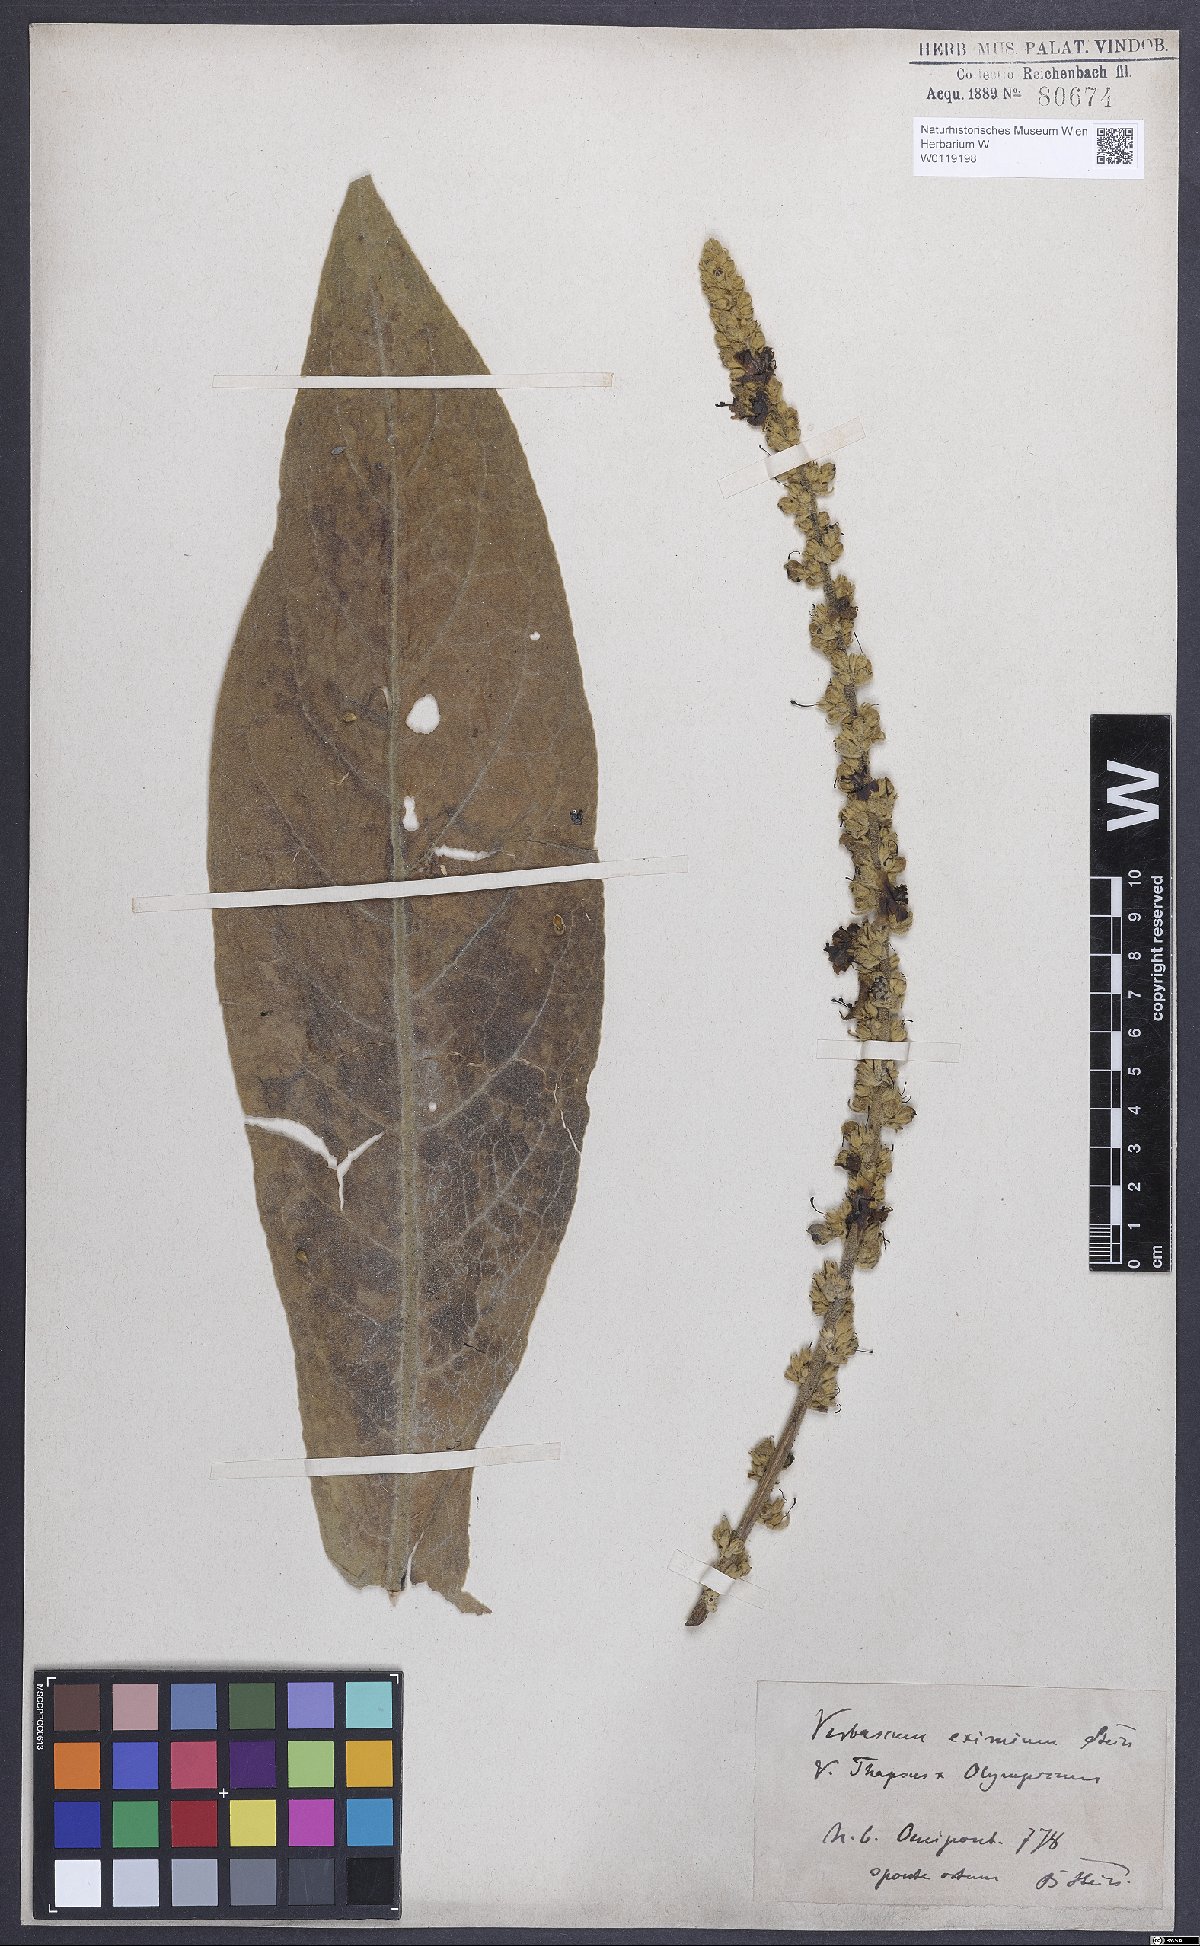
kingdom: Plantae
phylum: Tracheophyta
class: Magnoliopsida
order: Lamiales
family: Scrophulariaceae
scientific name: Scrophulariaceae
